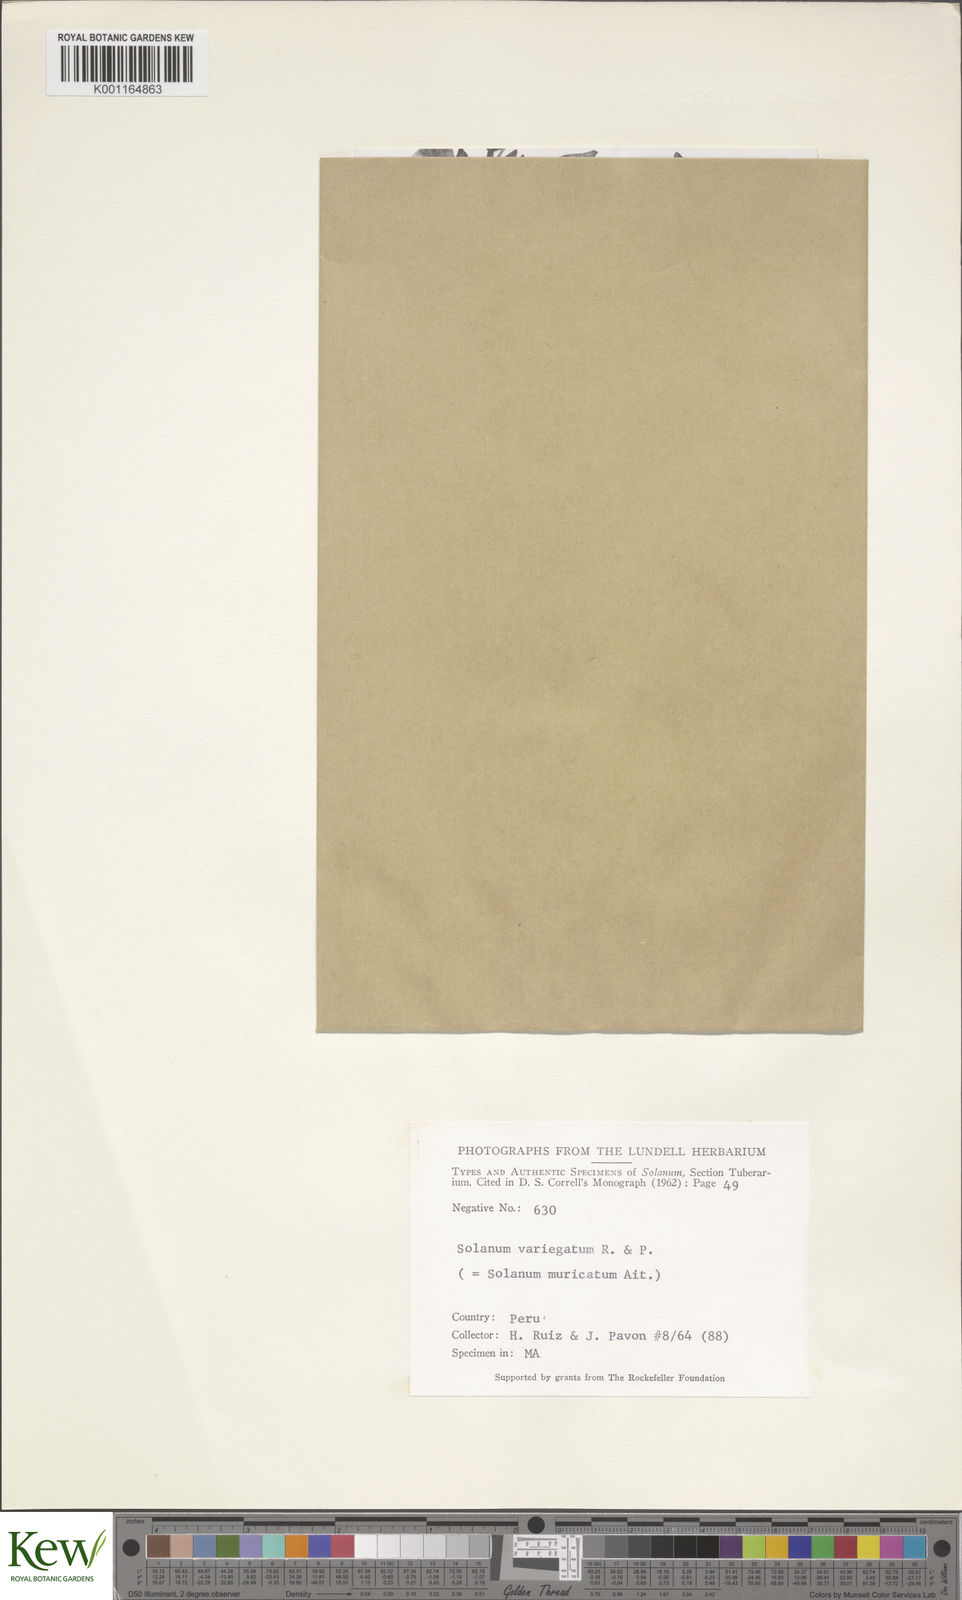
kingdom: Plantae
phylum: Tracheophyta
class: Magnoliopsida
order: Solanales
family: Solanaceae
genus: Solanum
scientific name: Solanum muricatum
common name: Peruvian pepino
